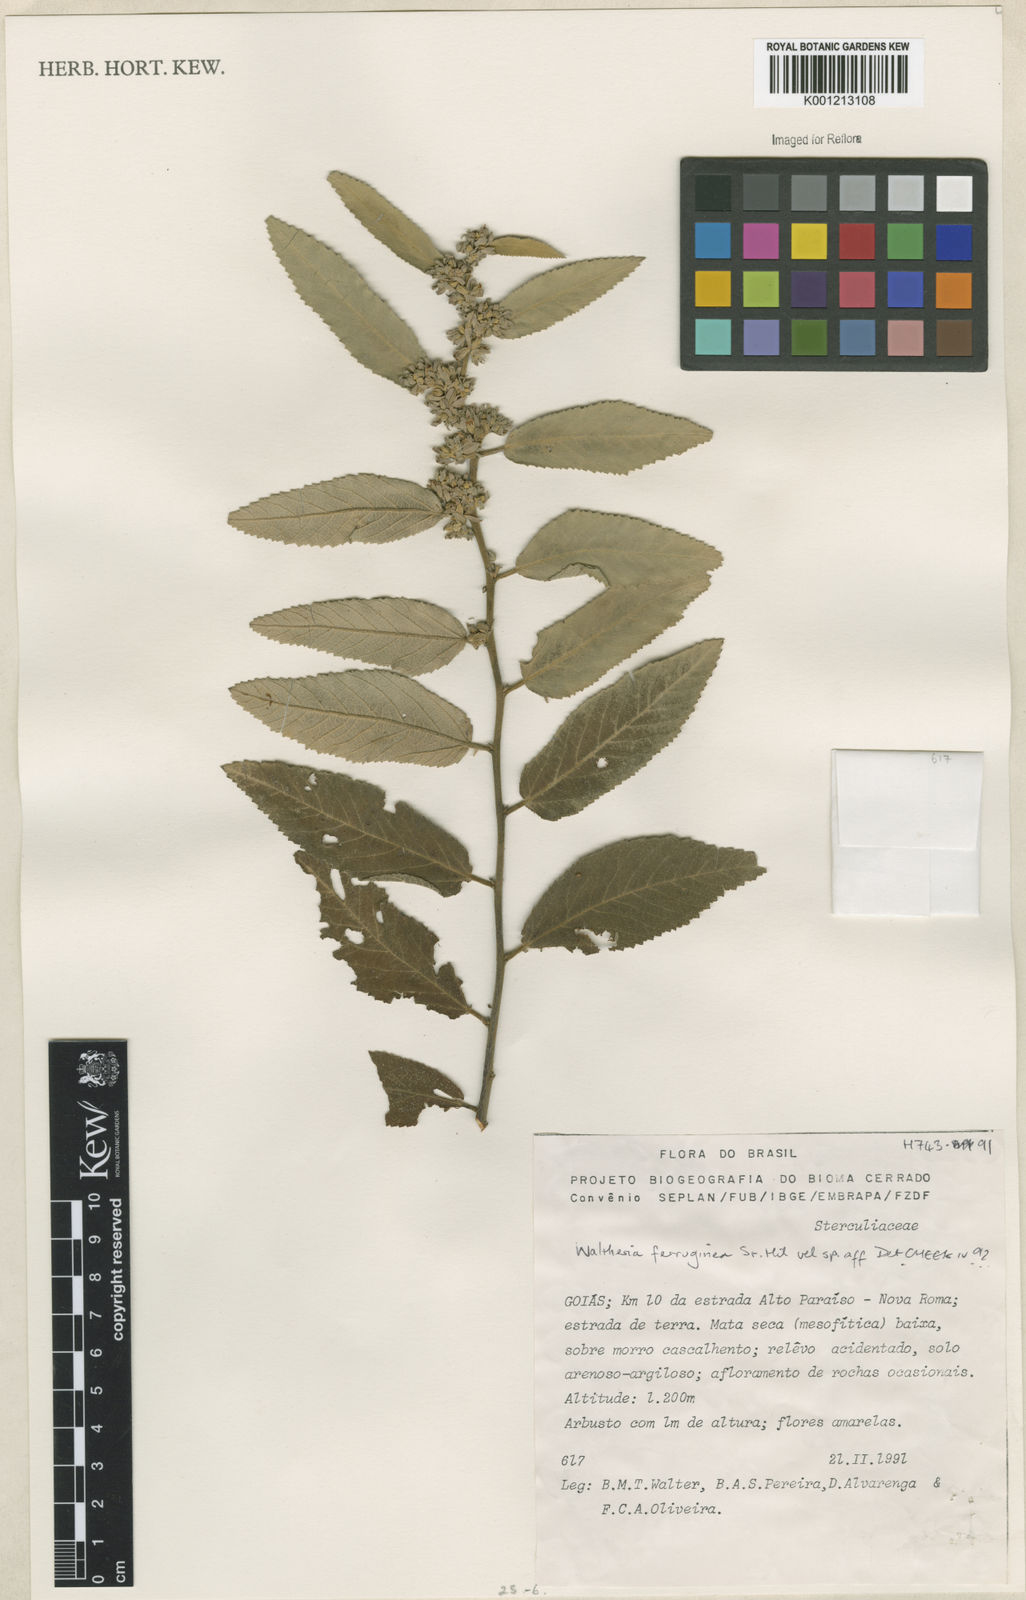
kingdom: Plantae
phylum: Tracheophyta
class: Magnoliopsida
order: Malvales
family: Malvaceae
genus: Waltheria
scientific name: Waltheria ferruginea
